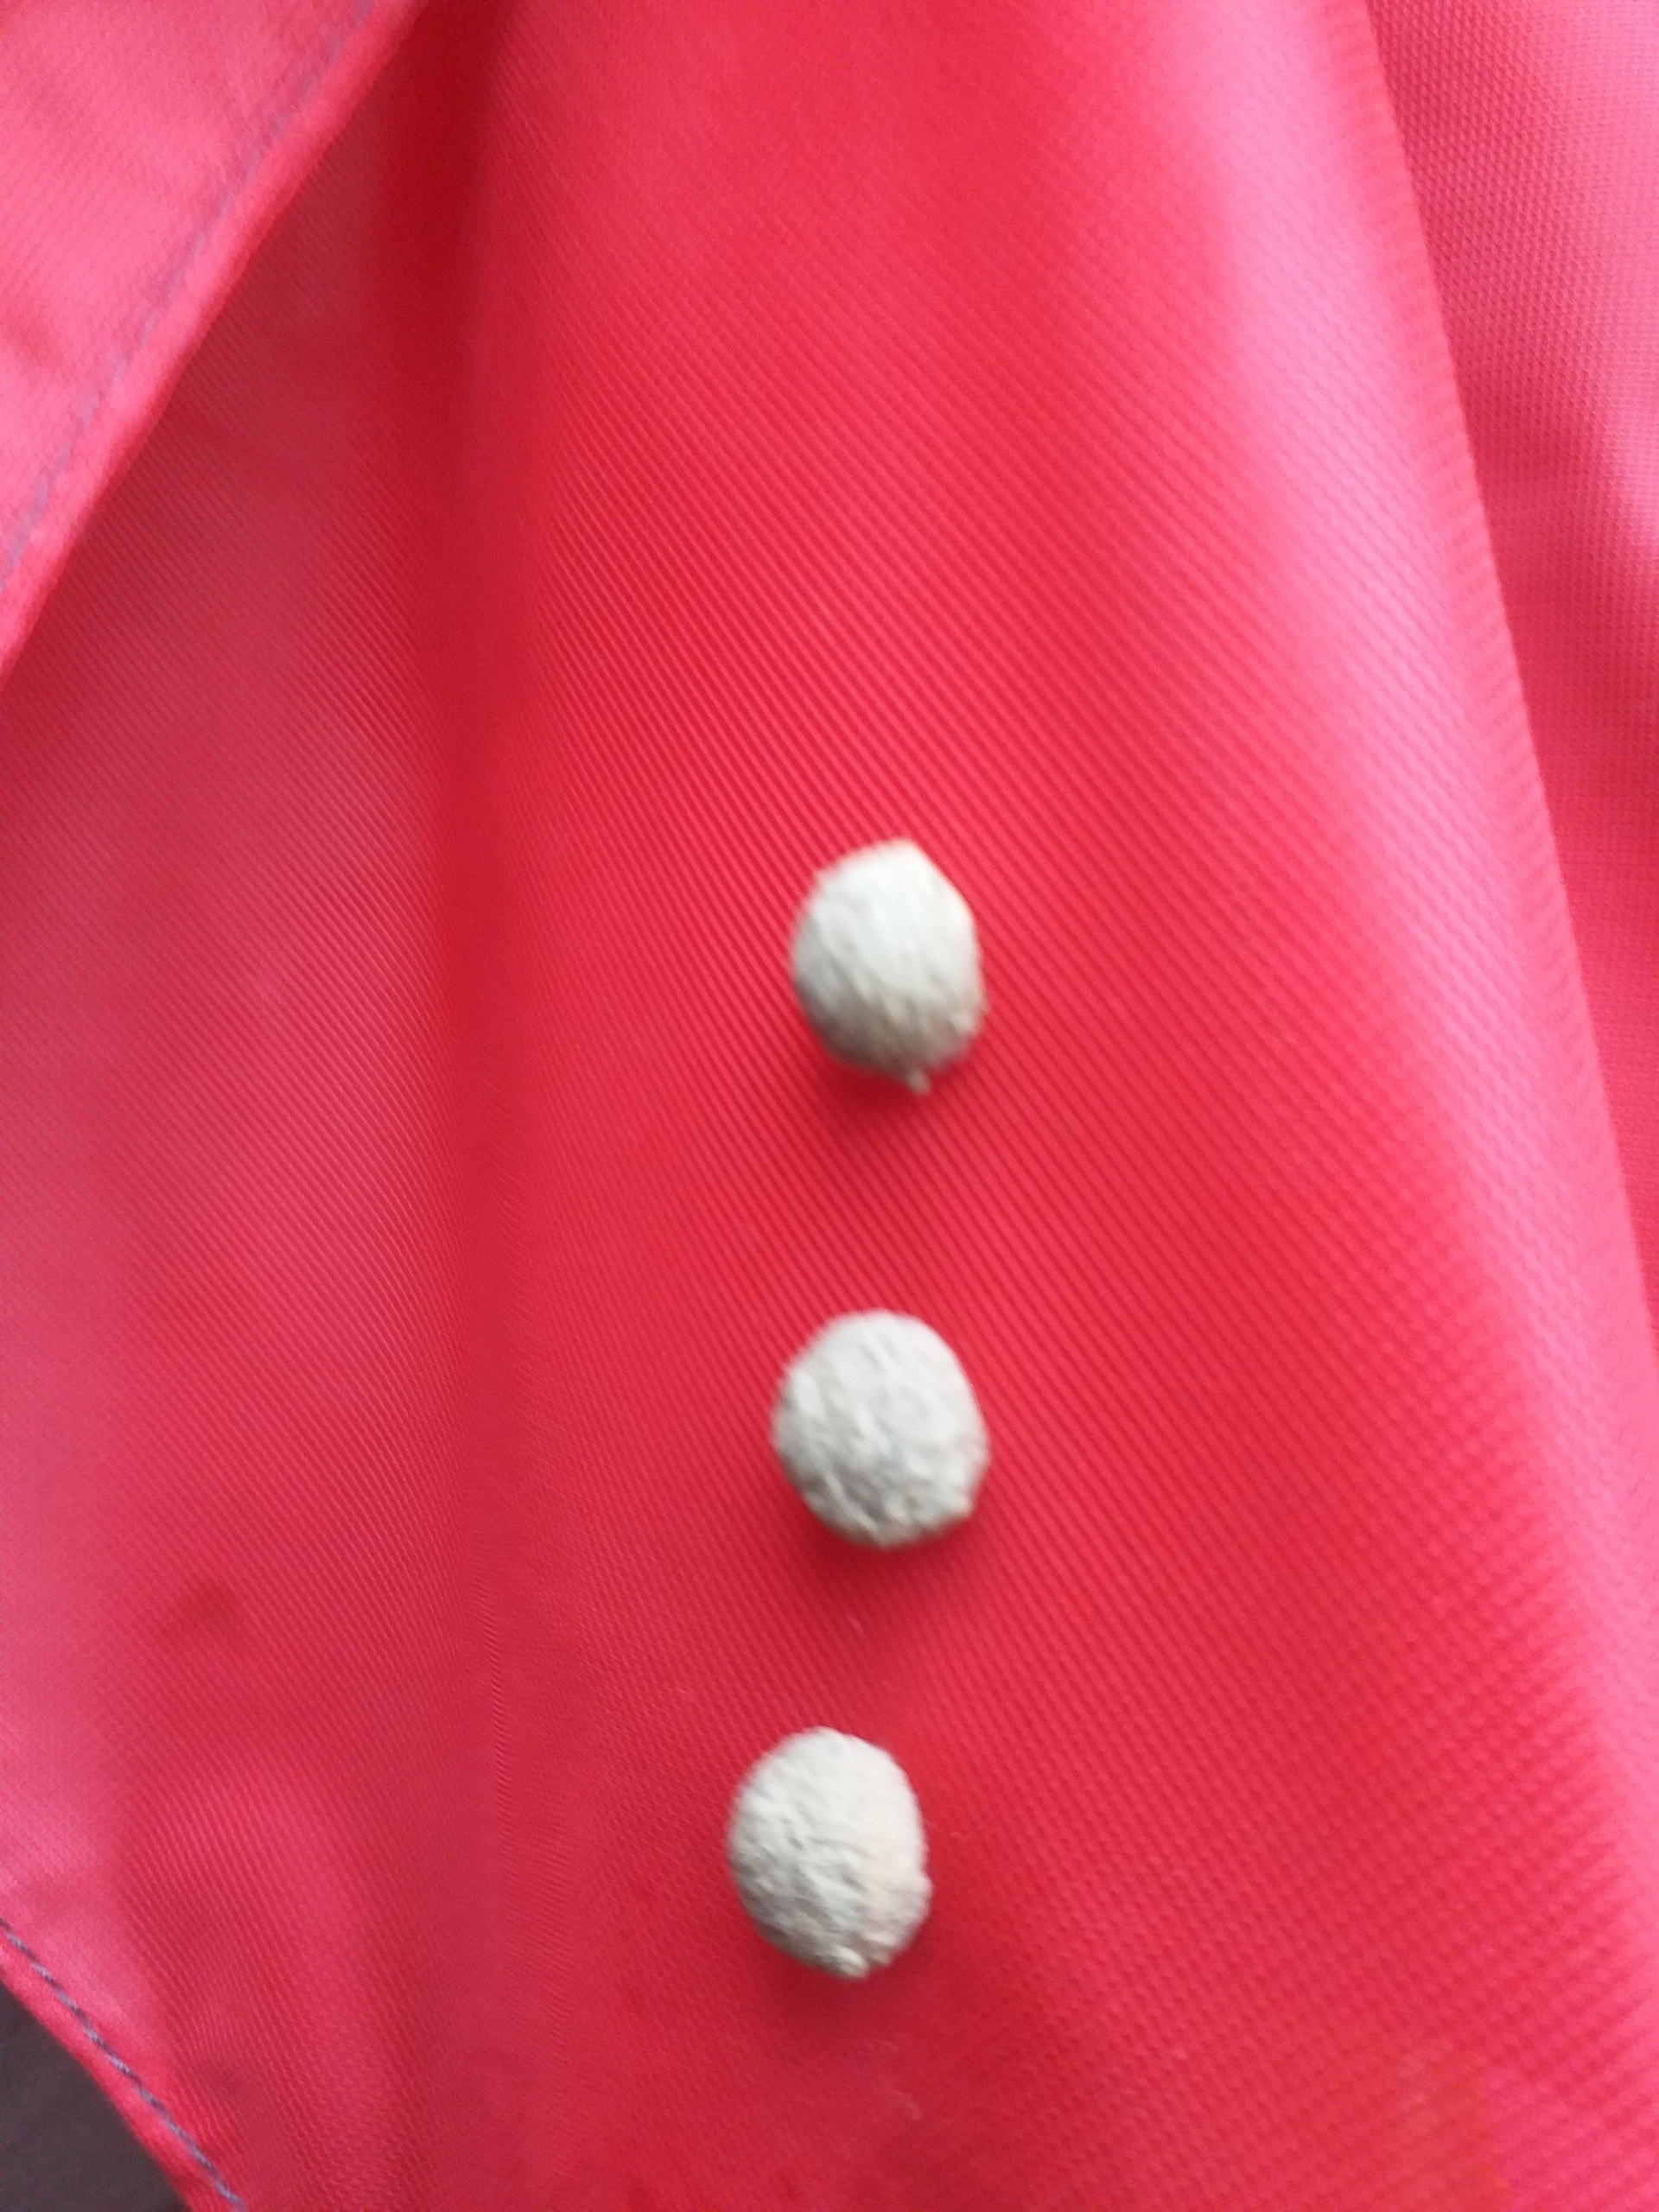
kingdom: Animalia
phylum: Arthropoda
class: Insecta
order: Hymenoptera
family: Vespidae
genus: Eumenes
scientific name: Eumenes pedunculatus
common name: Pottemagerhveps
